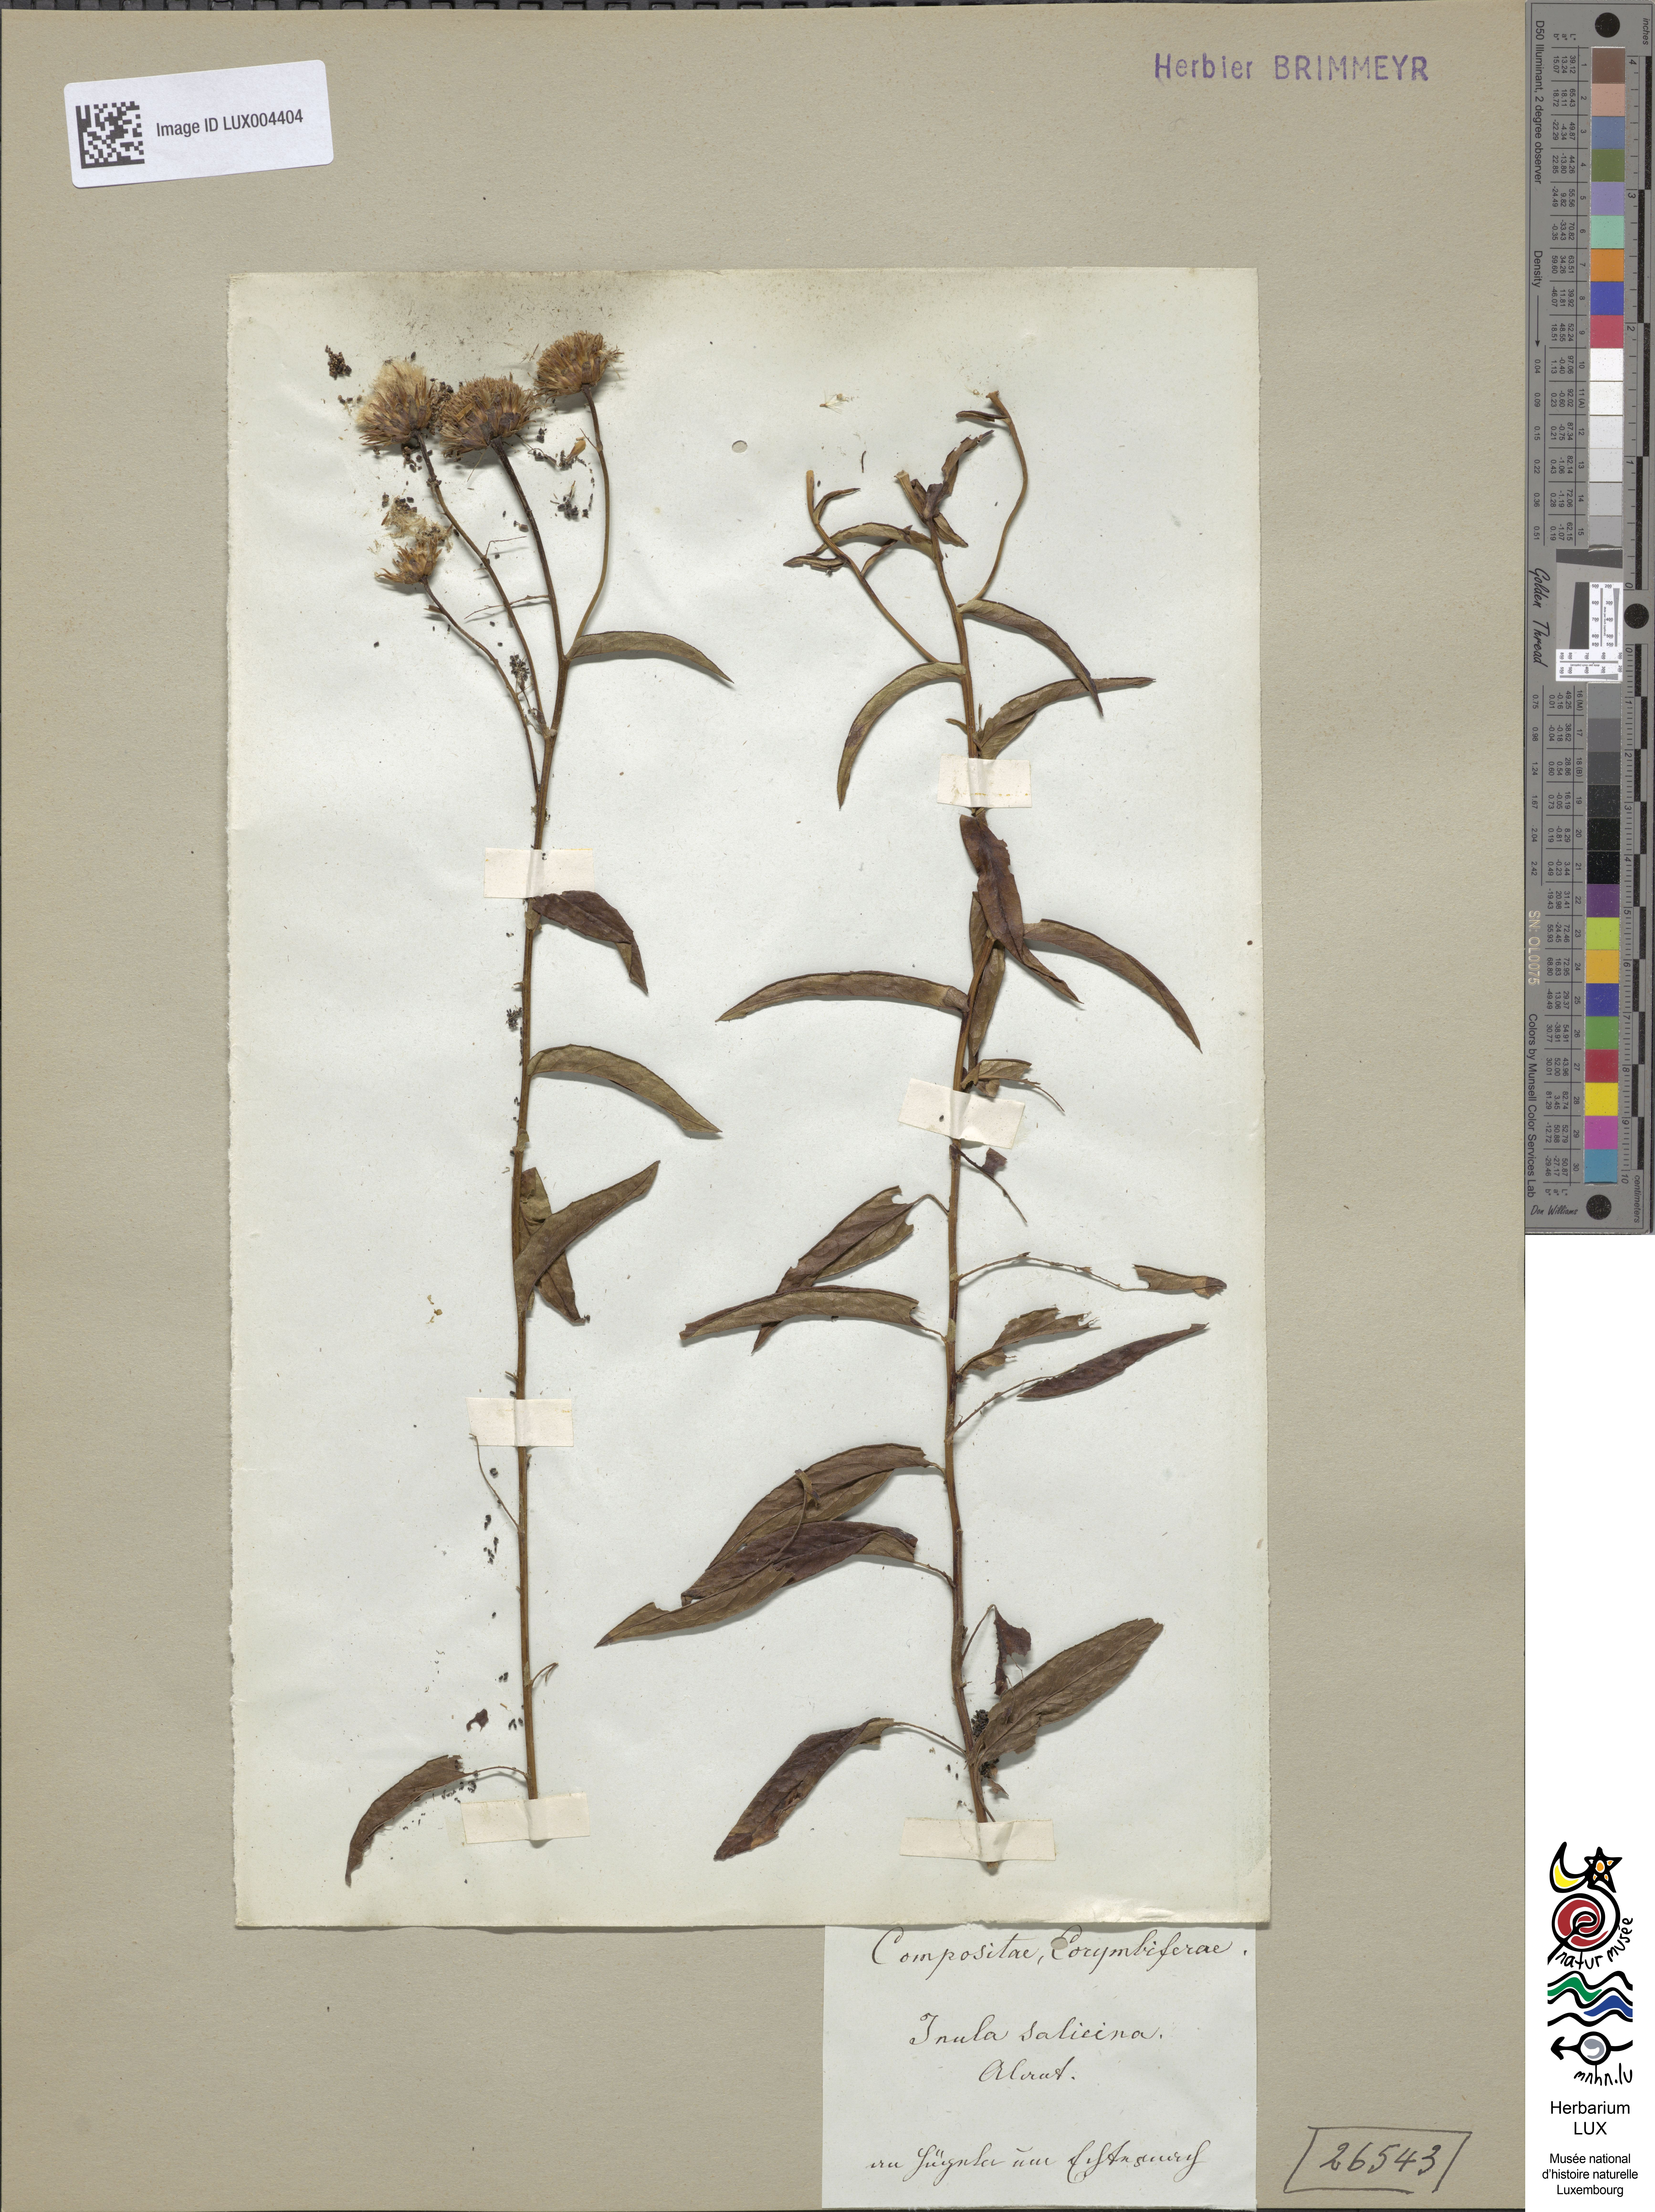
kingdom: Plantae
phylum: Tracheophyta
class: Magnoliopsida
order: Asterales
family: Asteraceae
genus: Pentanema
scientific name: Pentanema salicinum
